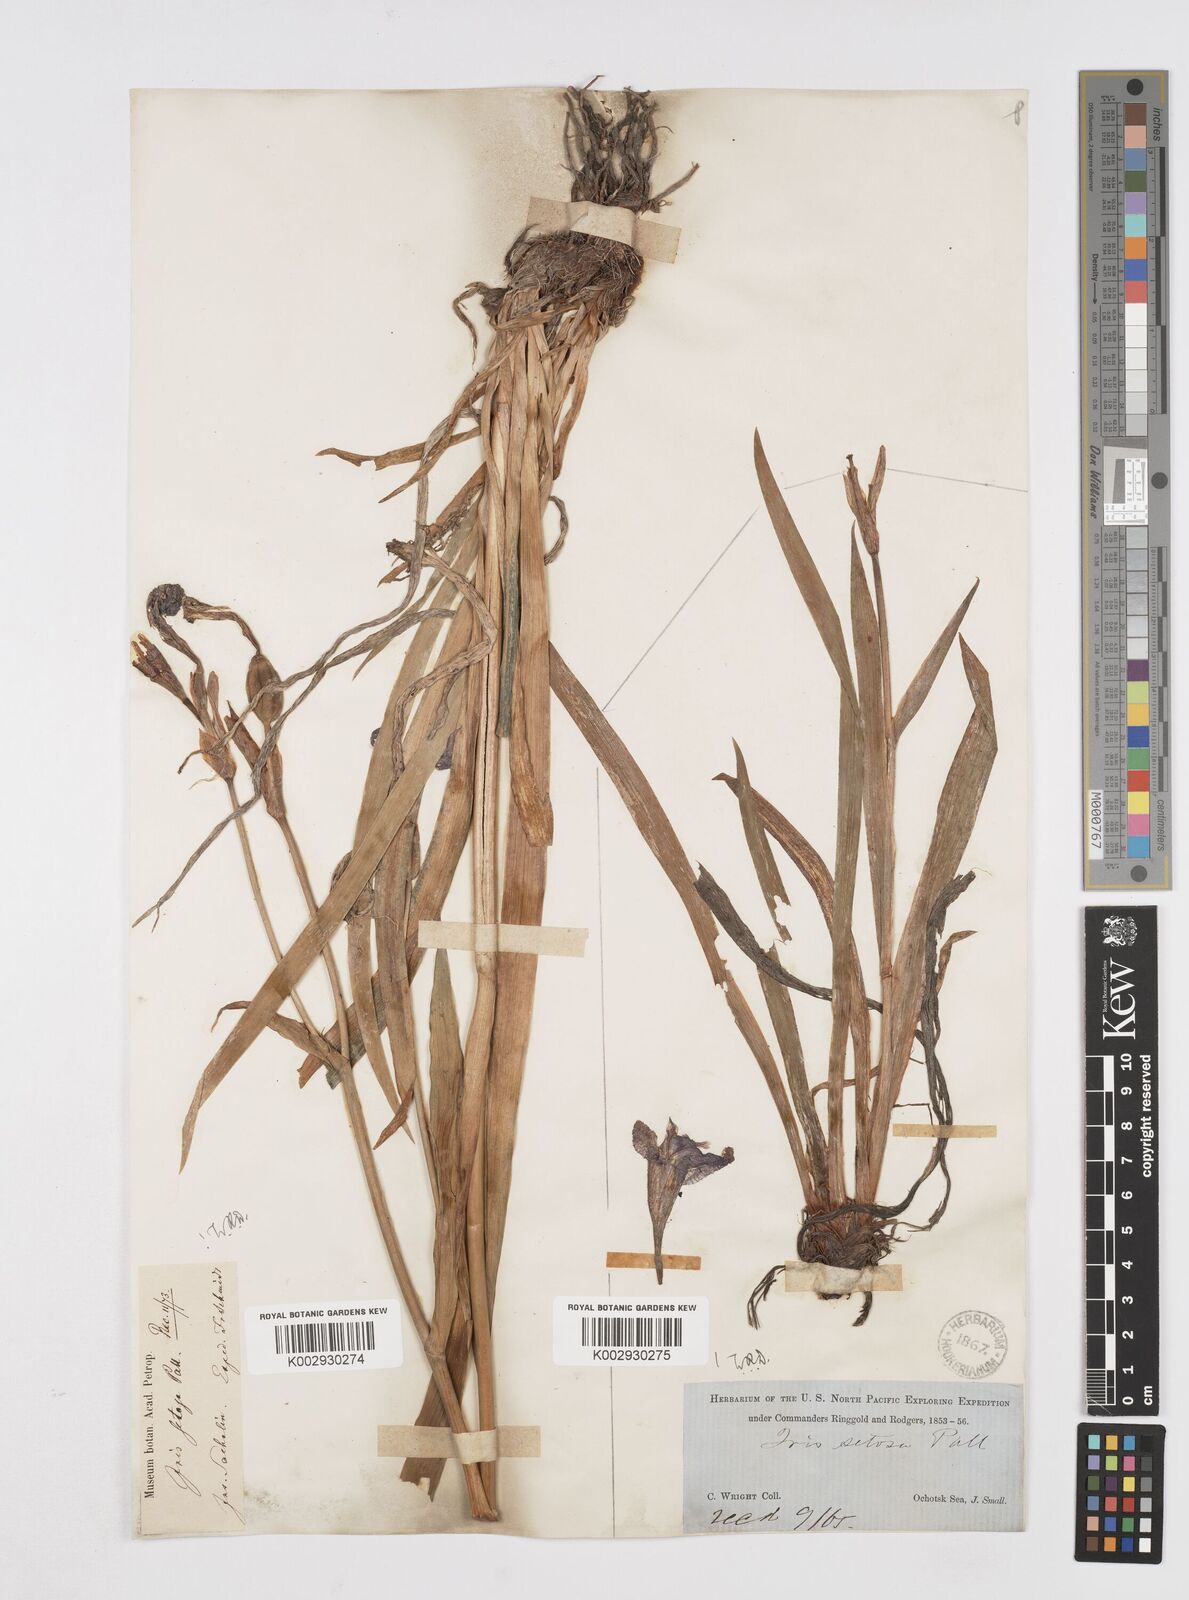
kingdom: Plantae
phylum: Tracheophyta
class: Liliopsida
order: Asparagales
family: Iridaceae
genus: Iris
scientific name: Iris setosa
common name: Arctic blue flag
